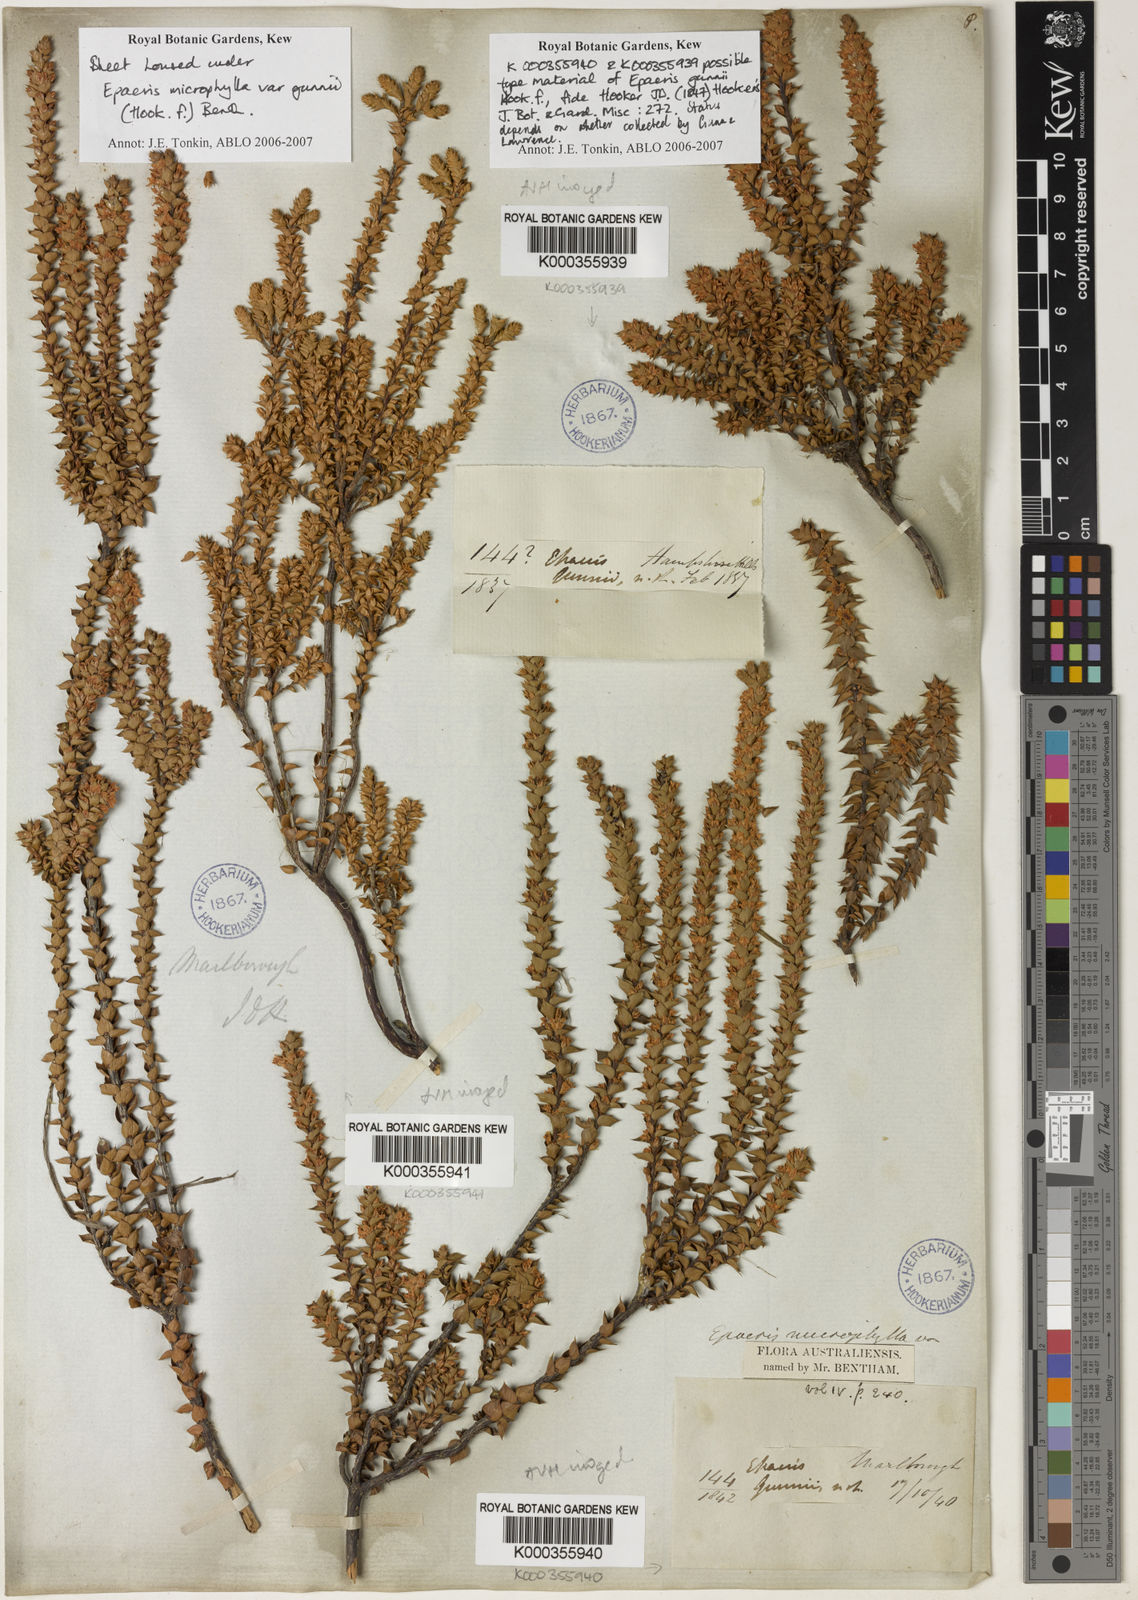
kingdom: Plantae
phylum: Tracheophyta
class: Magnoliopsida
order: Ericales
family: Ericaceae
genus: Epacris
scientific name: Epacris microphylla
